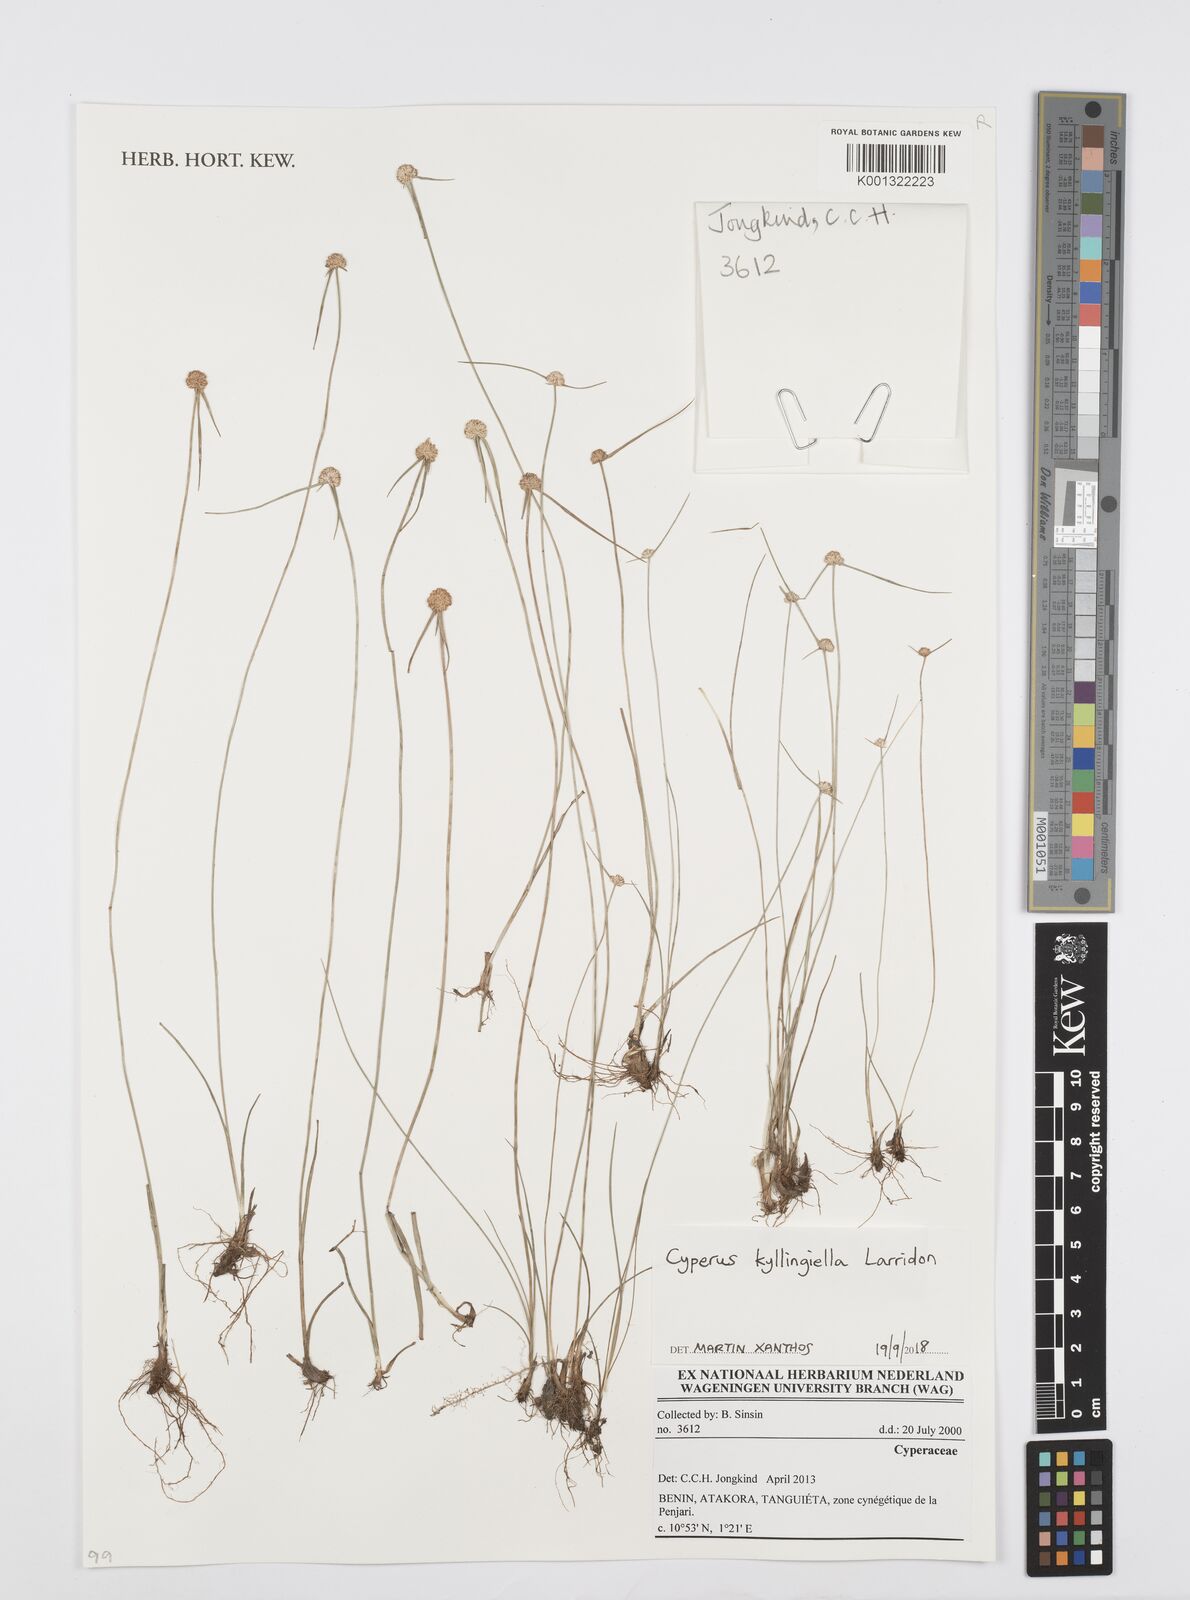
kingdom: Plantae
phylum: Tracheophyta
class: Liliopsida
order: Poales
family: Cyperaceae
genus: Cyperus
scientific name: Cyperus kyllingiella
